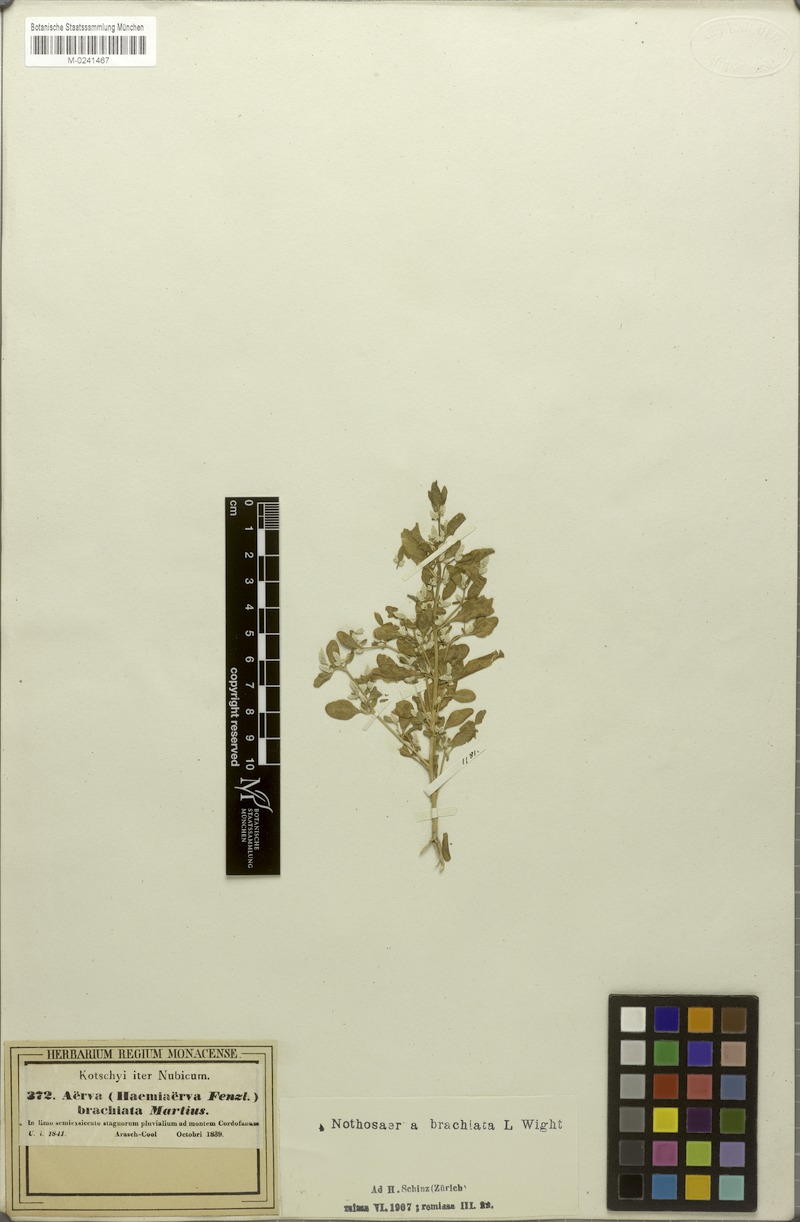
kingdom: Plantae
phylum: Tracheophyta
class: Magnoliopsida
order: Caryophyllales
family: Amaranthaceae
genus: Nothosaerva
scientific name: Nothosaerva brachiata
